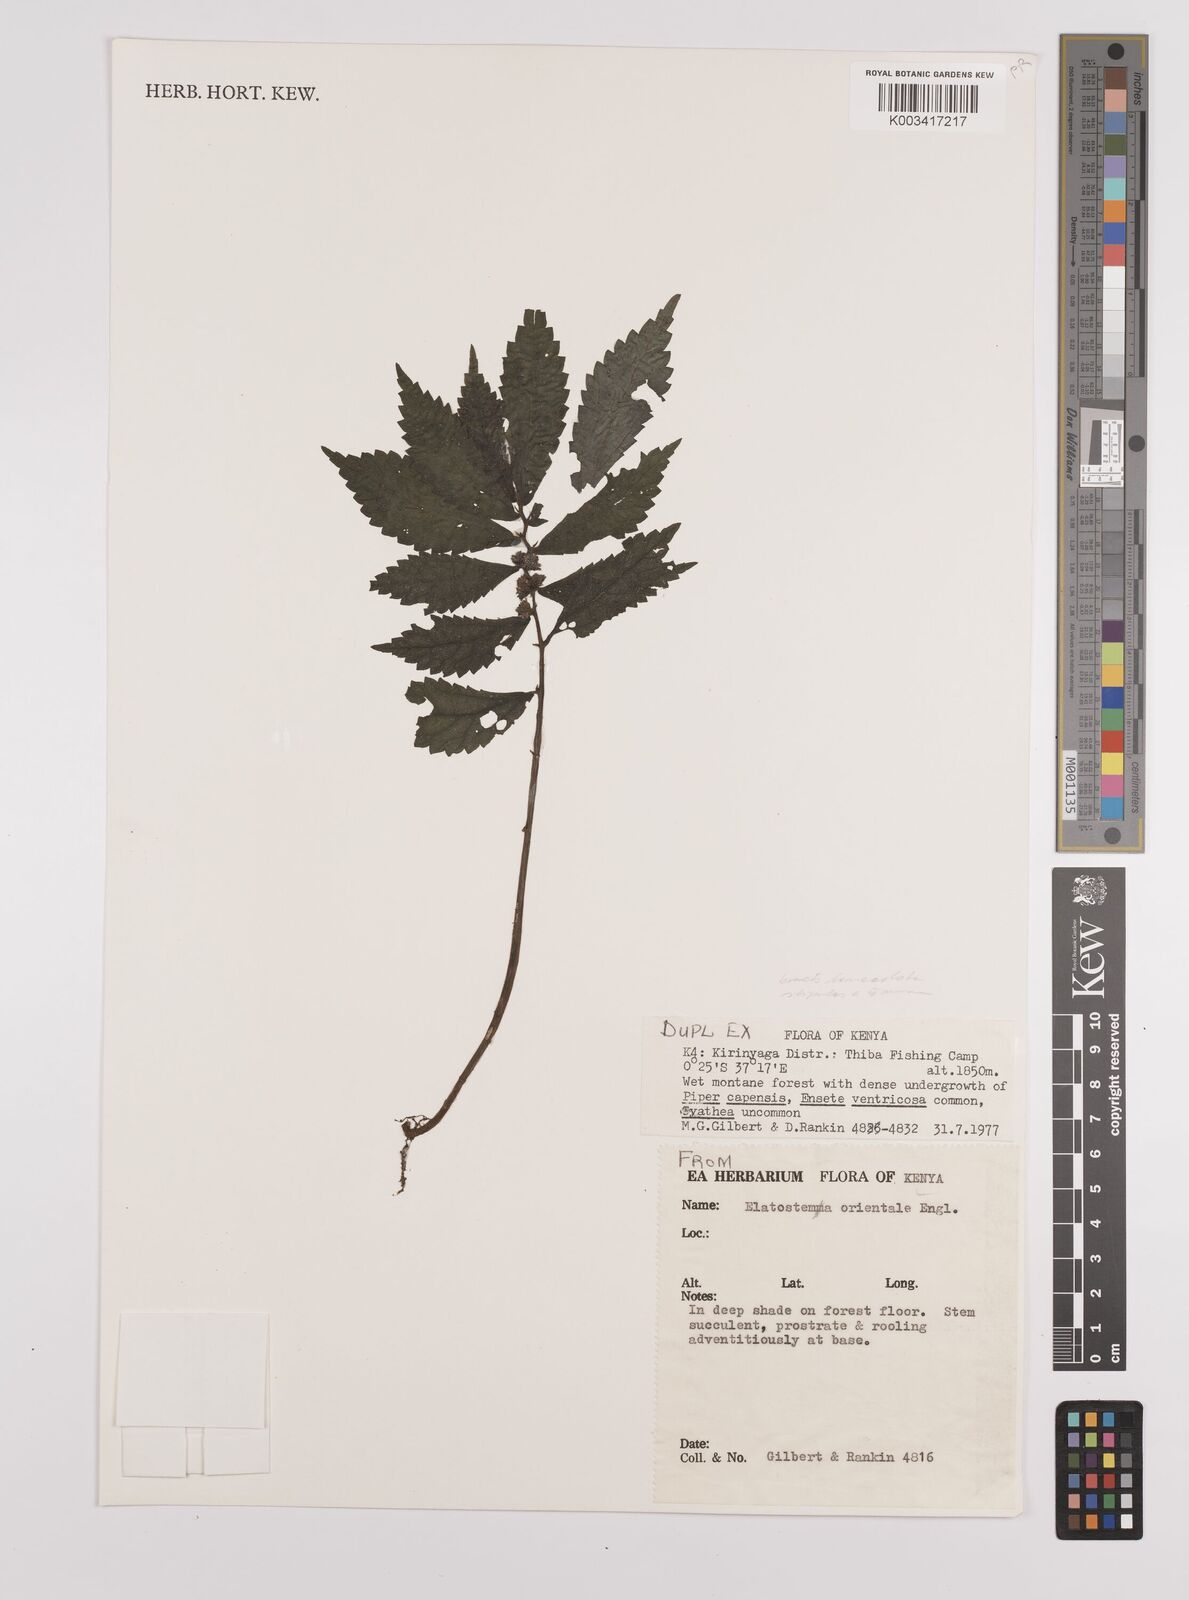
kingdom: Plantae
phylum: Tracheophyta
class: Magnoliopsida
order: Rosales
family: Urticaceae
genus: Elatostema
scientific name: Elatostema monticola
